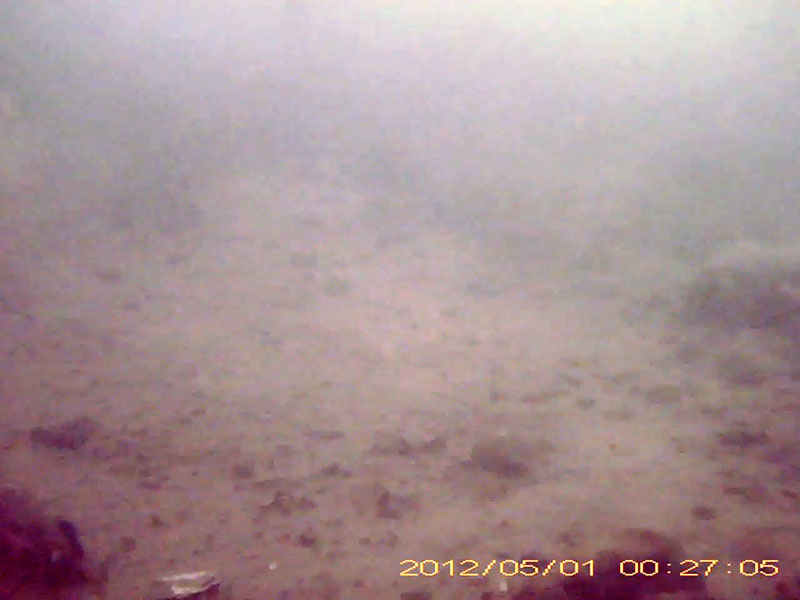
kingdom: Animalia
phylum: Chordata
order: Perciformes
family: Gobiidae
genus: Rhinogobius
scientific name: Rhinogobius
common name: ヨシノボリ
